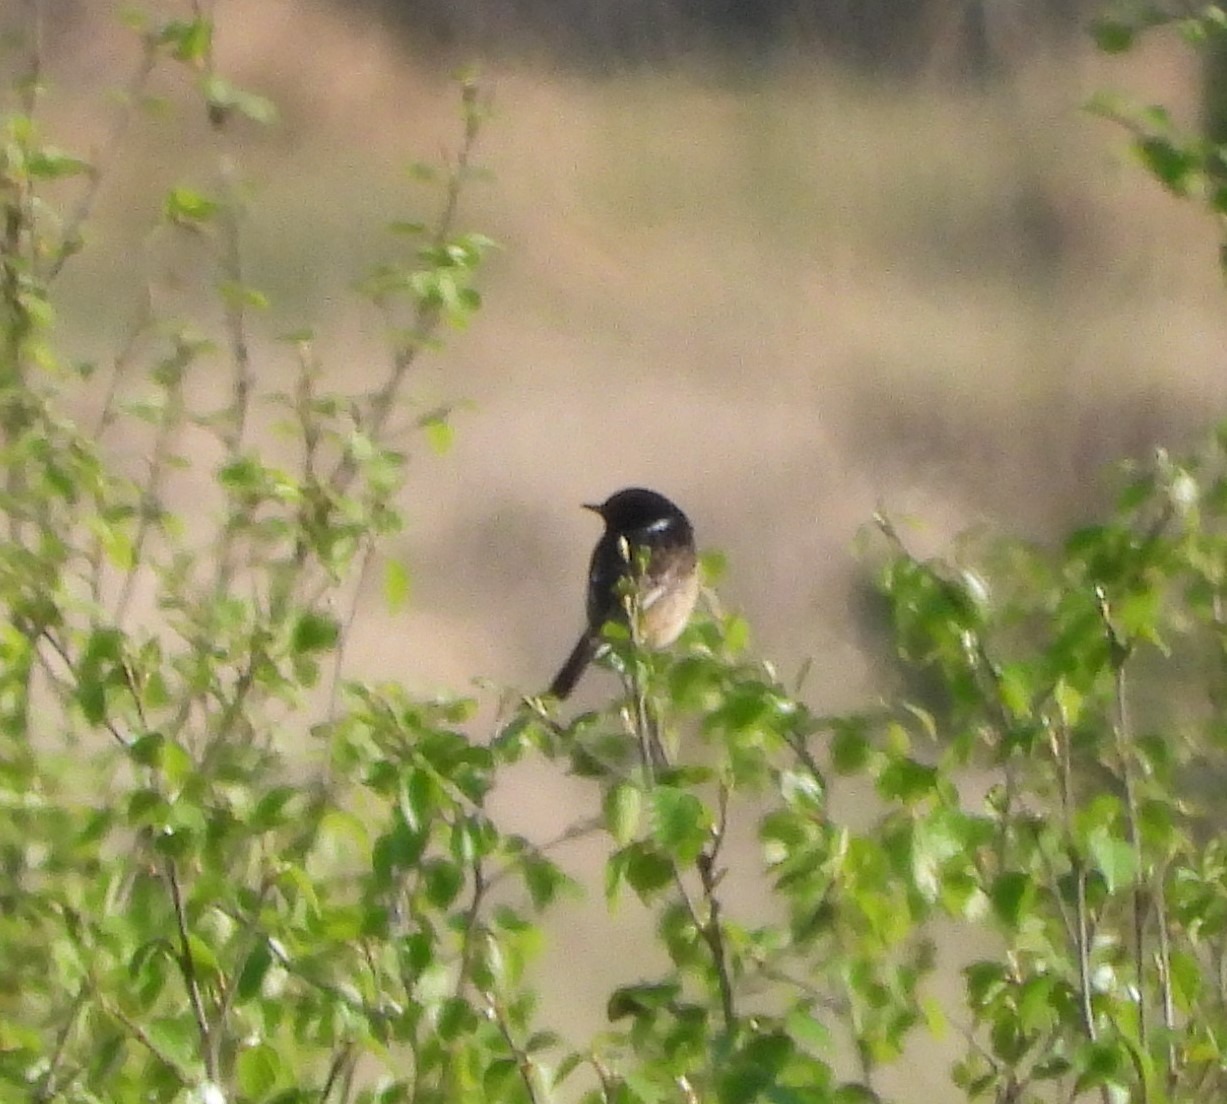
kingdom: Animalia
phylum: Chordata
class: Aves
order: Passeriformes
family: Muscicapidae
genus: Saxicola
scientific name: Saxicola rubicola
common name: Sortstrubet bynkefugl
